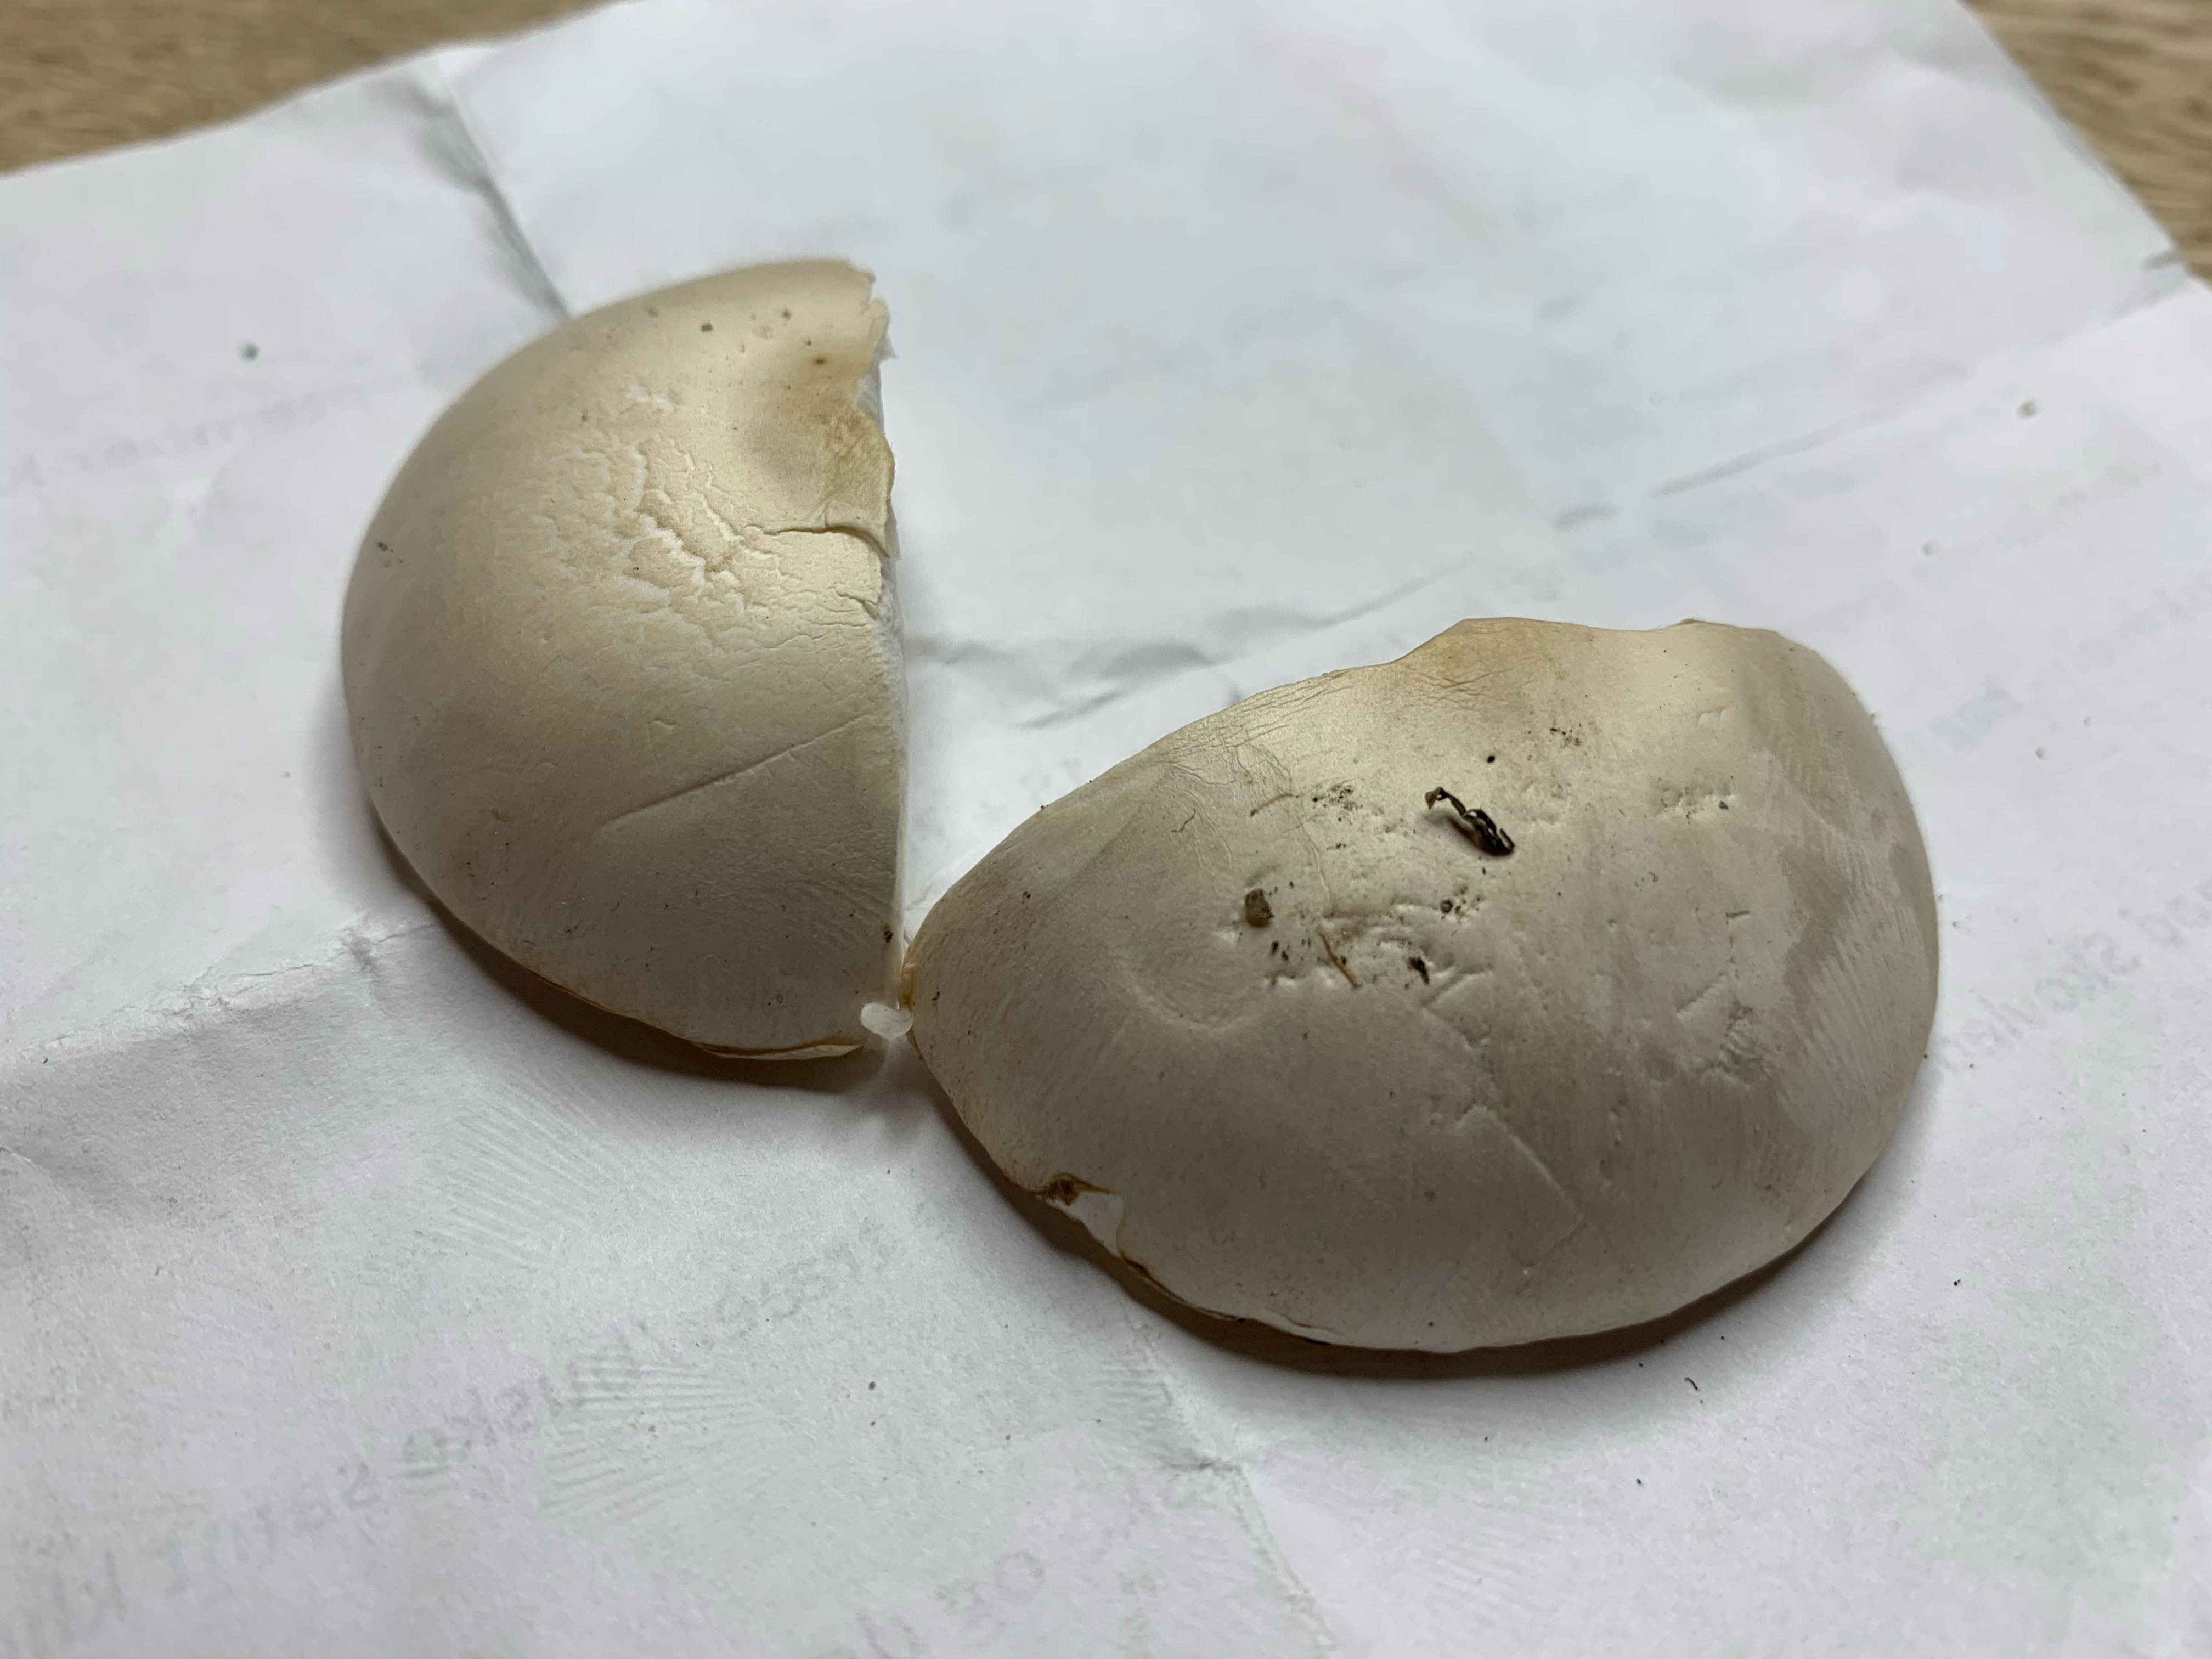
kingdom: Fungi
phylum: Basidiomycota
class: Agaricomycetes
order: Agaricales
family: Agaricaceae
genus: Leucoagaricus
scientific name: Leucoagaricus leucothites
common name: rosabladet silkehat
